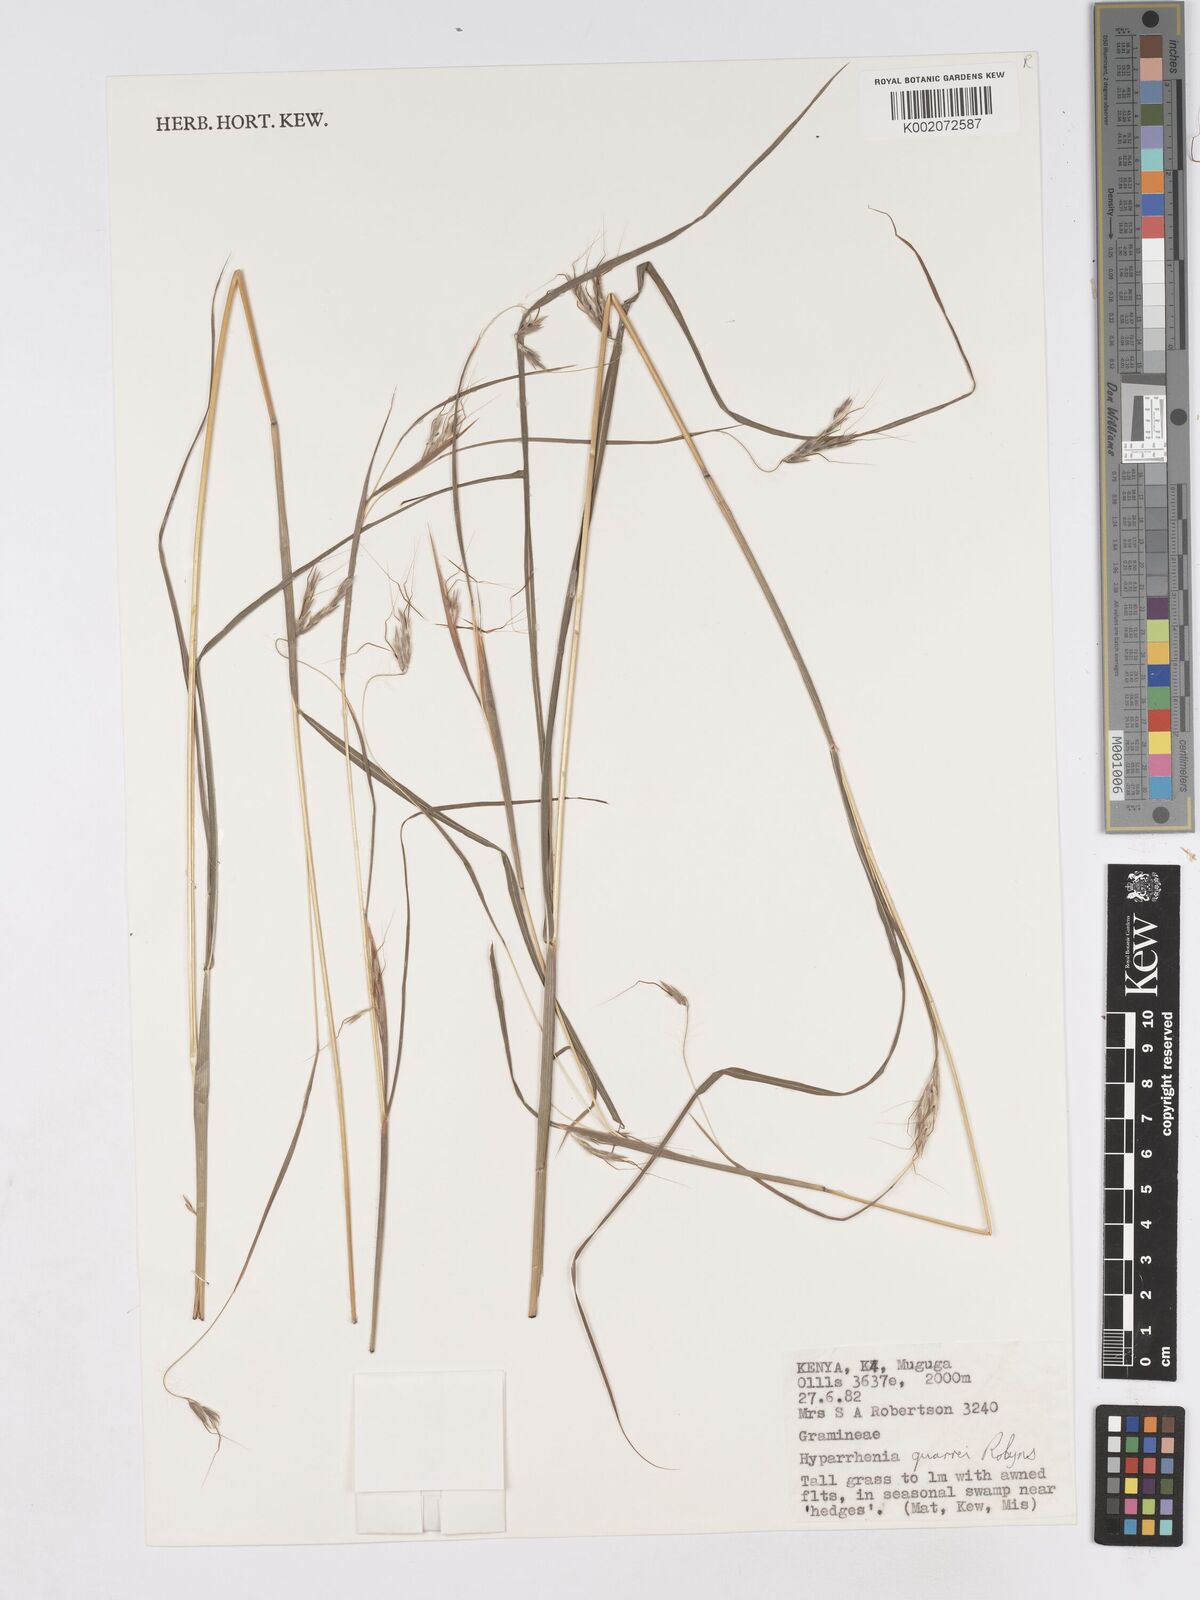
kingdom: Plantae
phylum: Tracheophyta
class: Liliopsida
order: Poales
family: Poaceae
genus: Hyparrhenia
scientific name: Hyparrhenia
